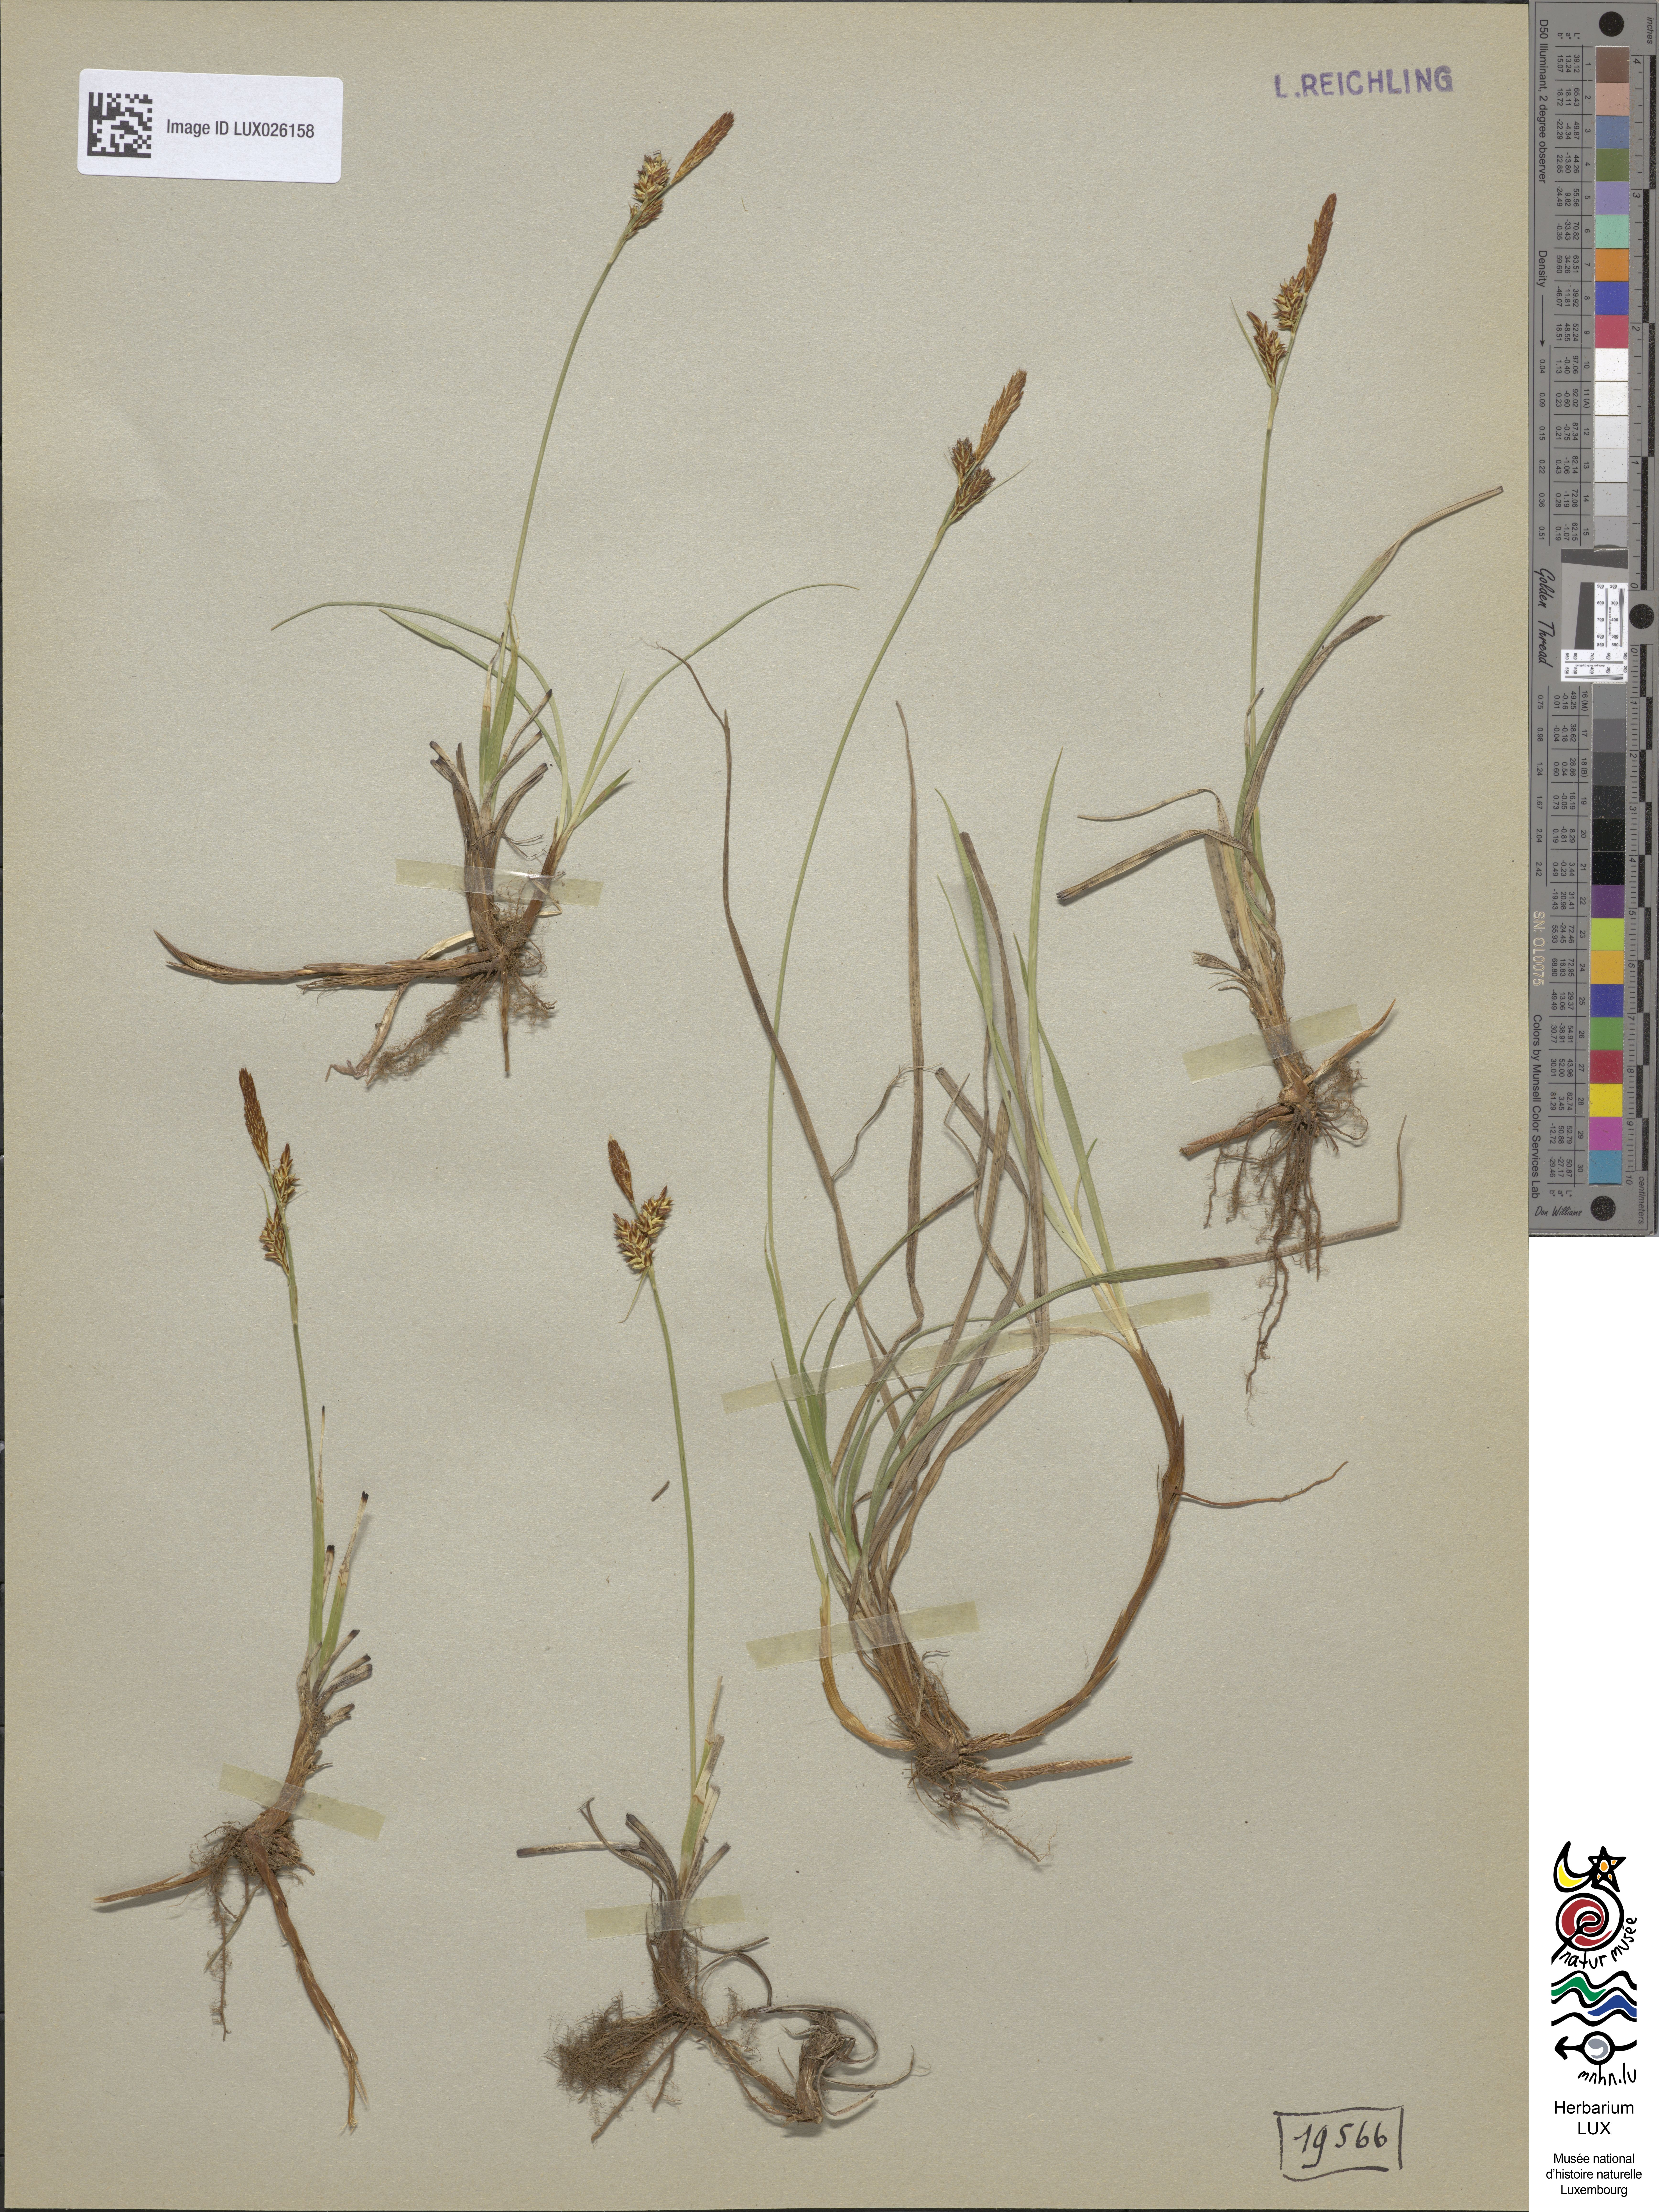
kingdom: Plantae
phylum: Tracheophyta
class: Liliopsida
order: Poales
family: Cyperaceae
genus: Carex
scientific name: Carex caryophyllea
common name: Spring sedge
